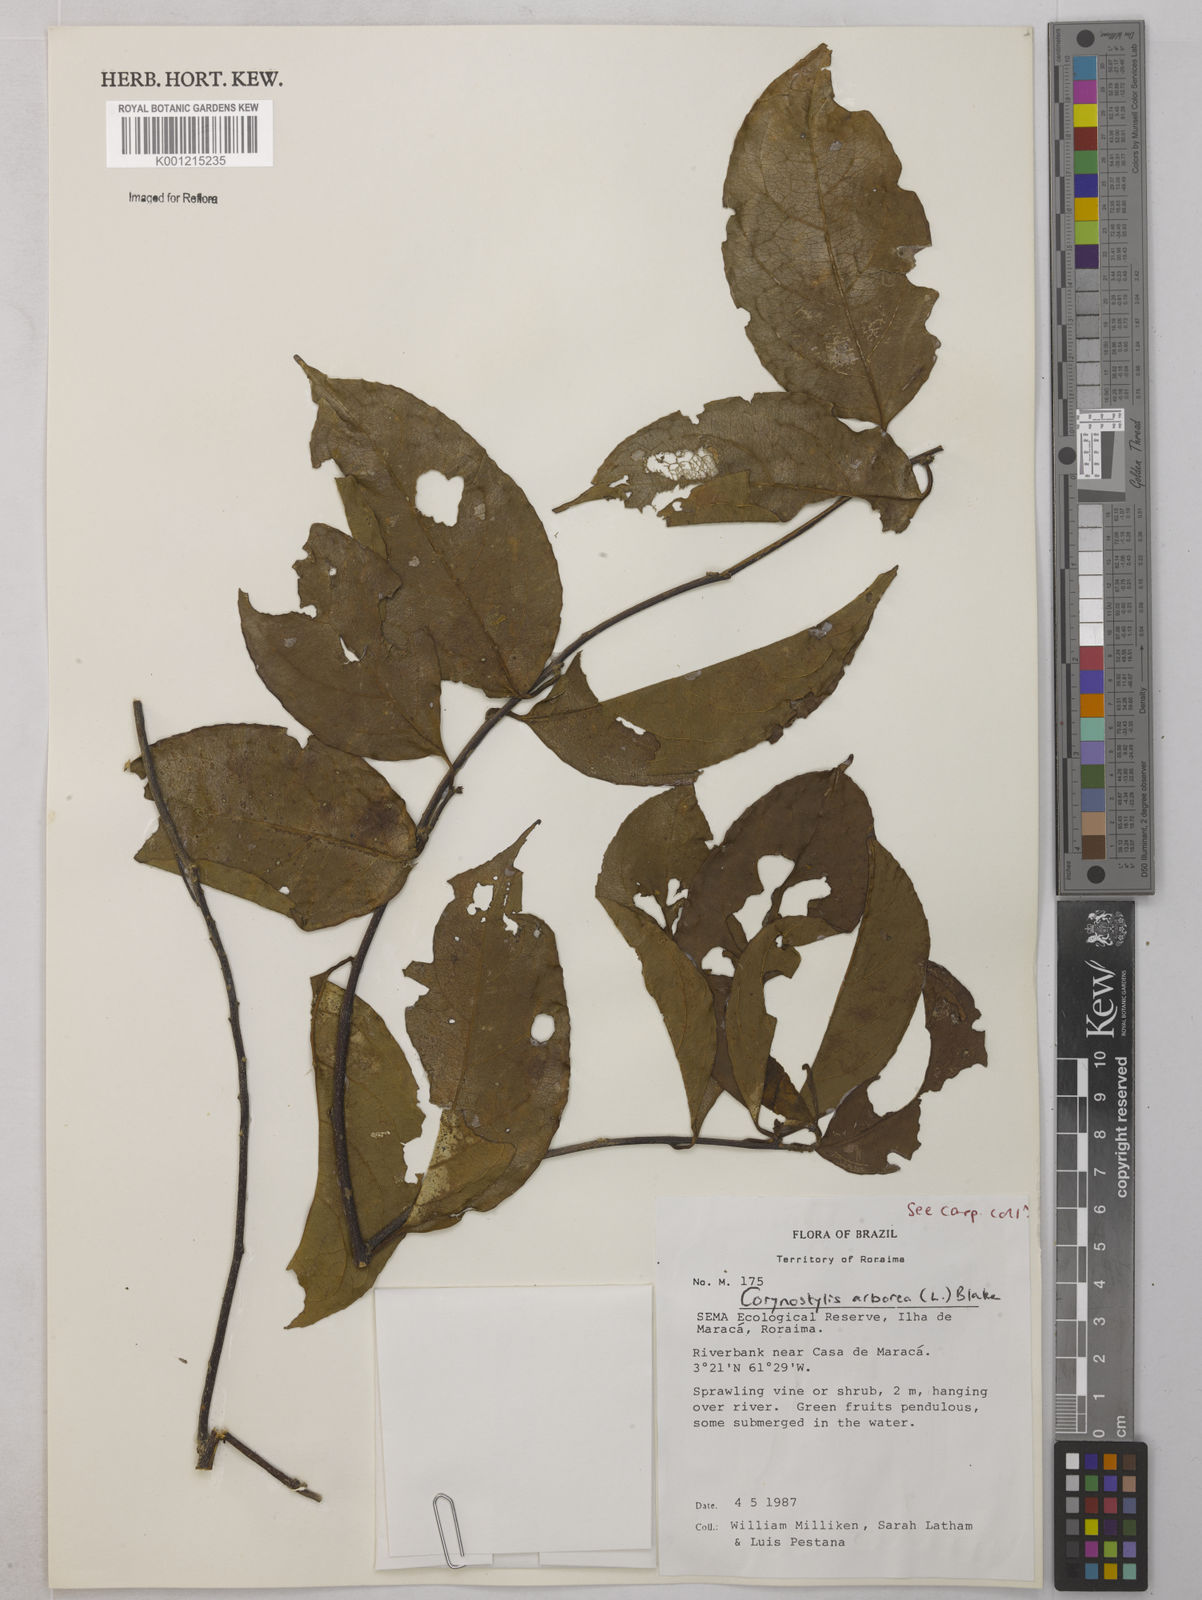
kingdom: Plantae
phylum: Tracheophyta
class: Magnoliopsida
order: Malpighiales
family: Violaceae
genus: Calyptrion
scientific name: Calyptrion arboreum
